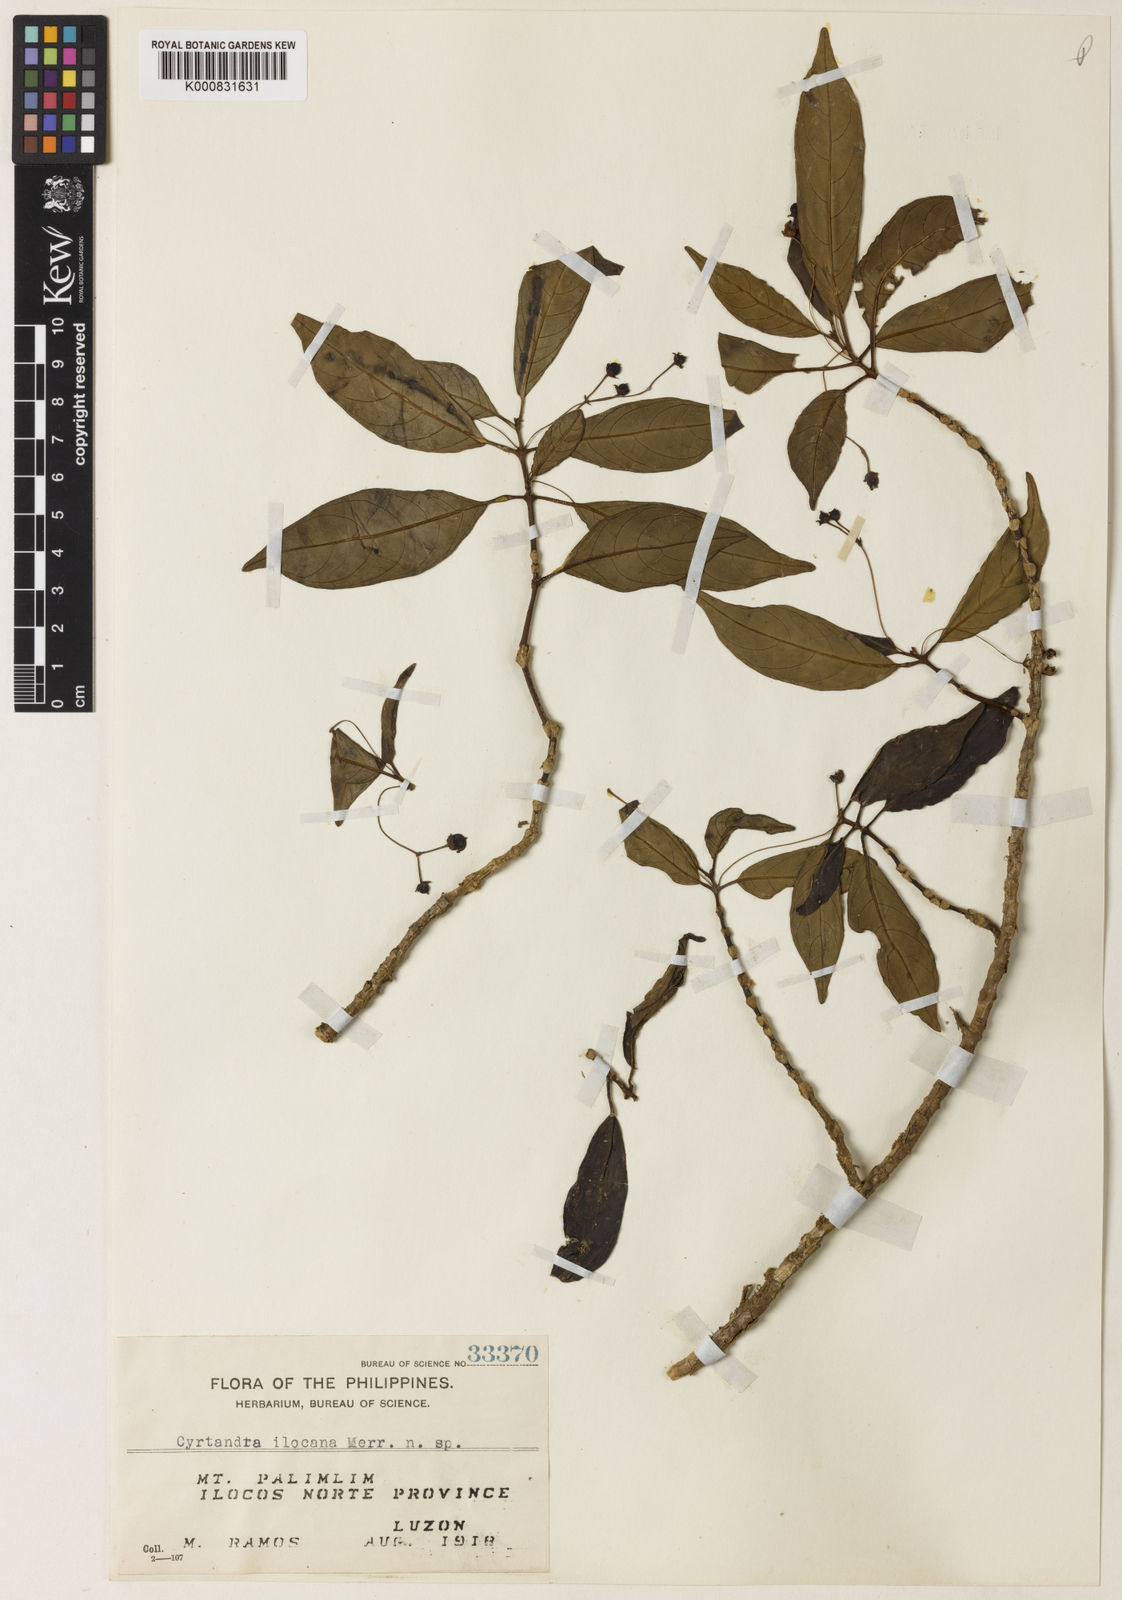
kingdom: Plantae
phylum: Tracheophyta
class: Magnoliopsida
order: Lamiales
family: Gesneriaceae
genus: Cyrtandra
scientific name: Cyrtandra ilocana
